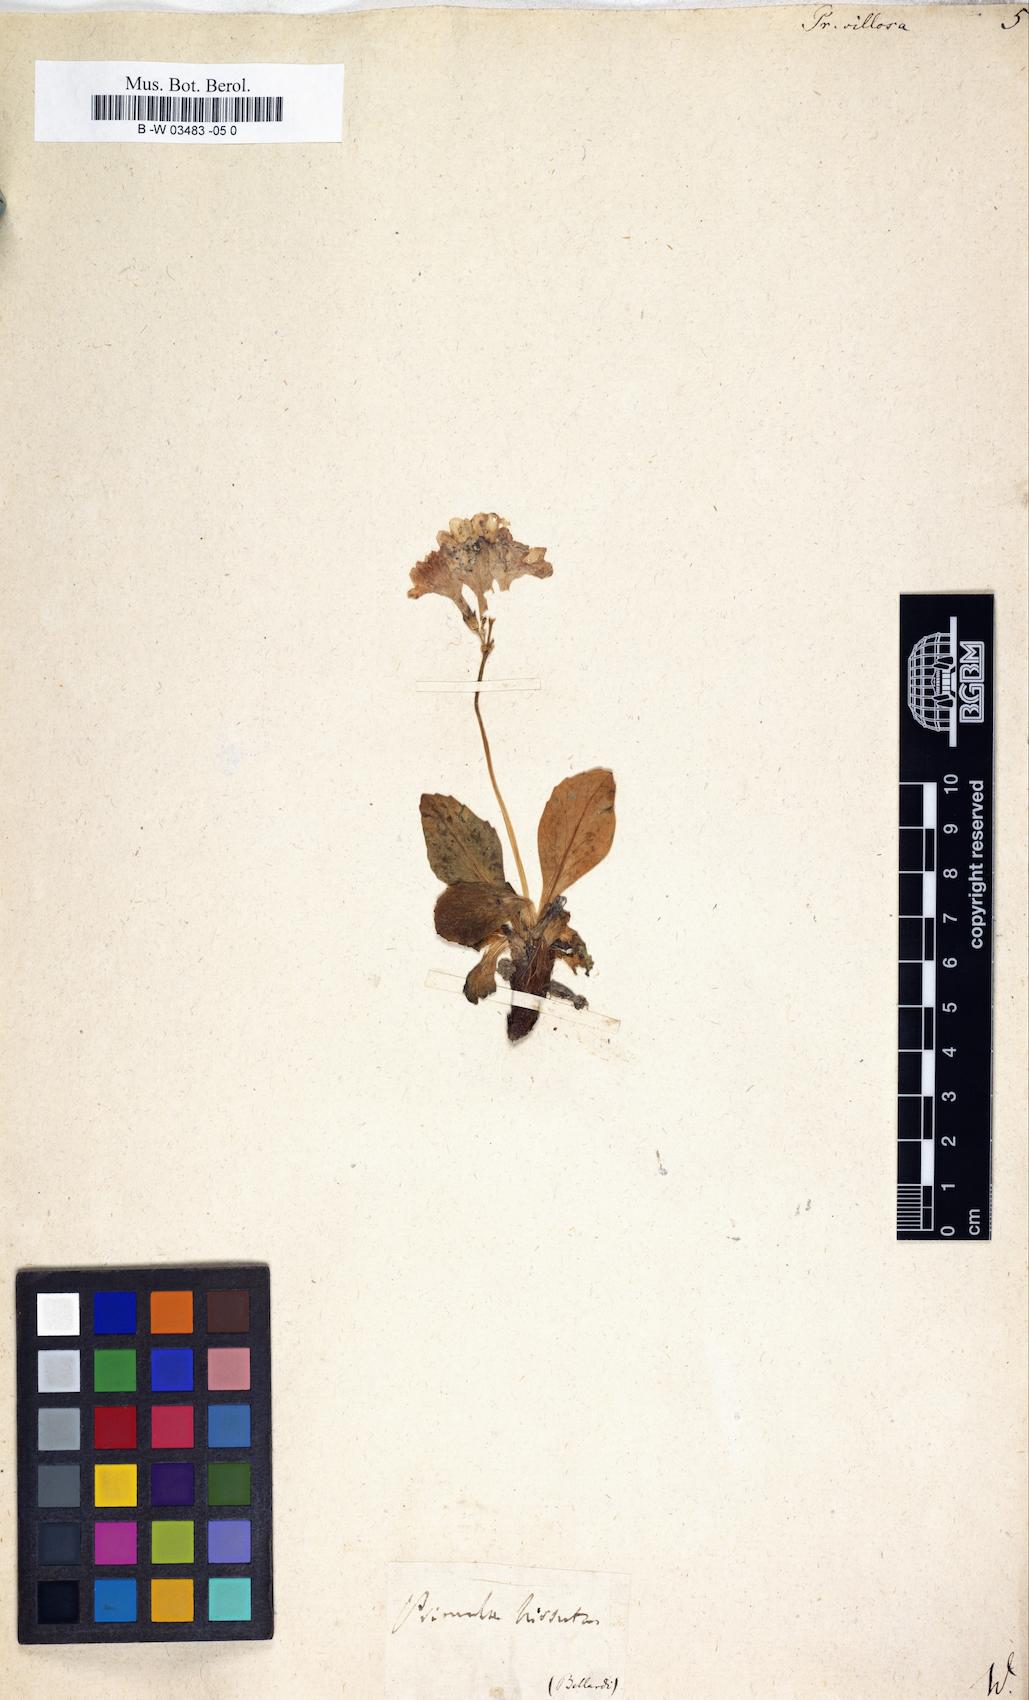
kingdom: Plantae
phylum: Tracheophyta
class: Magnoliopsida
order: Ericales
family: Primulaceae
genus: Primula
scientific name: Primula villosa
